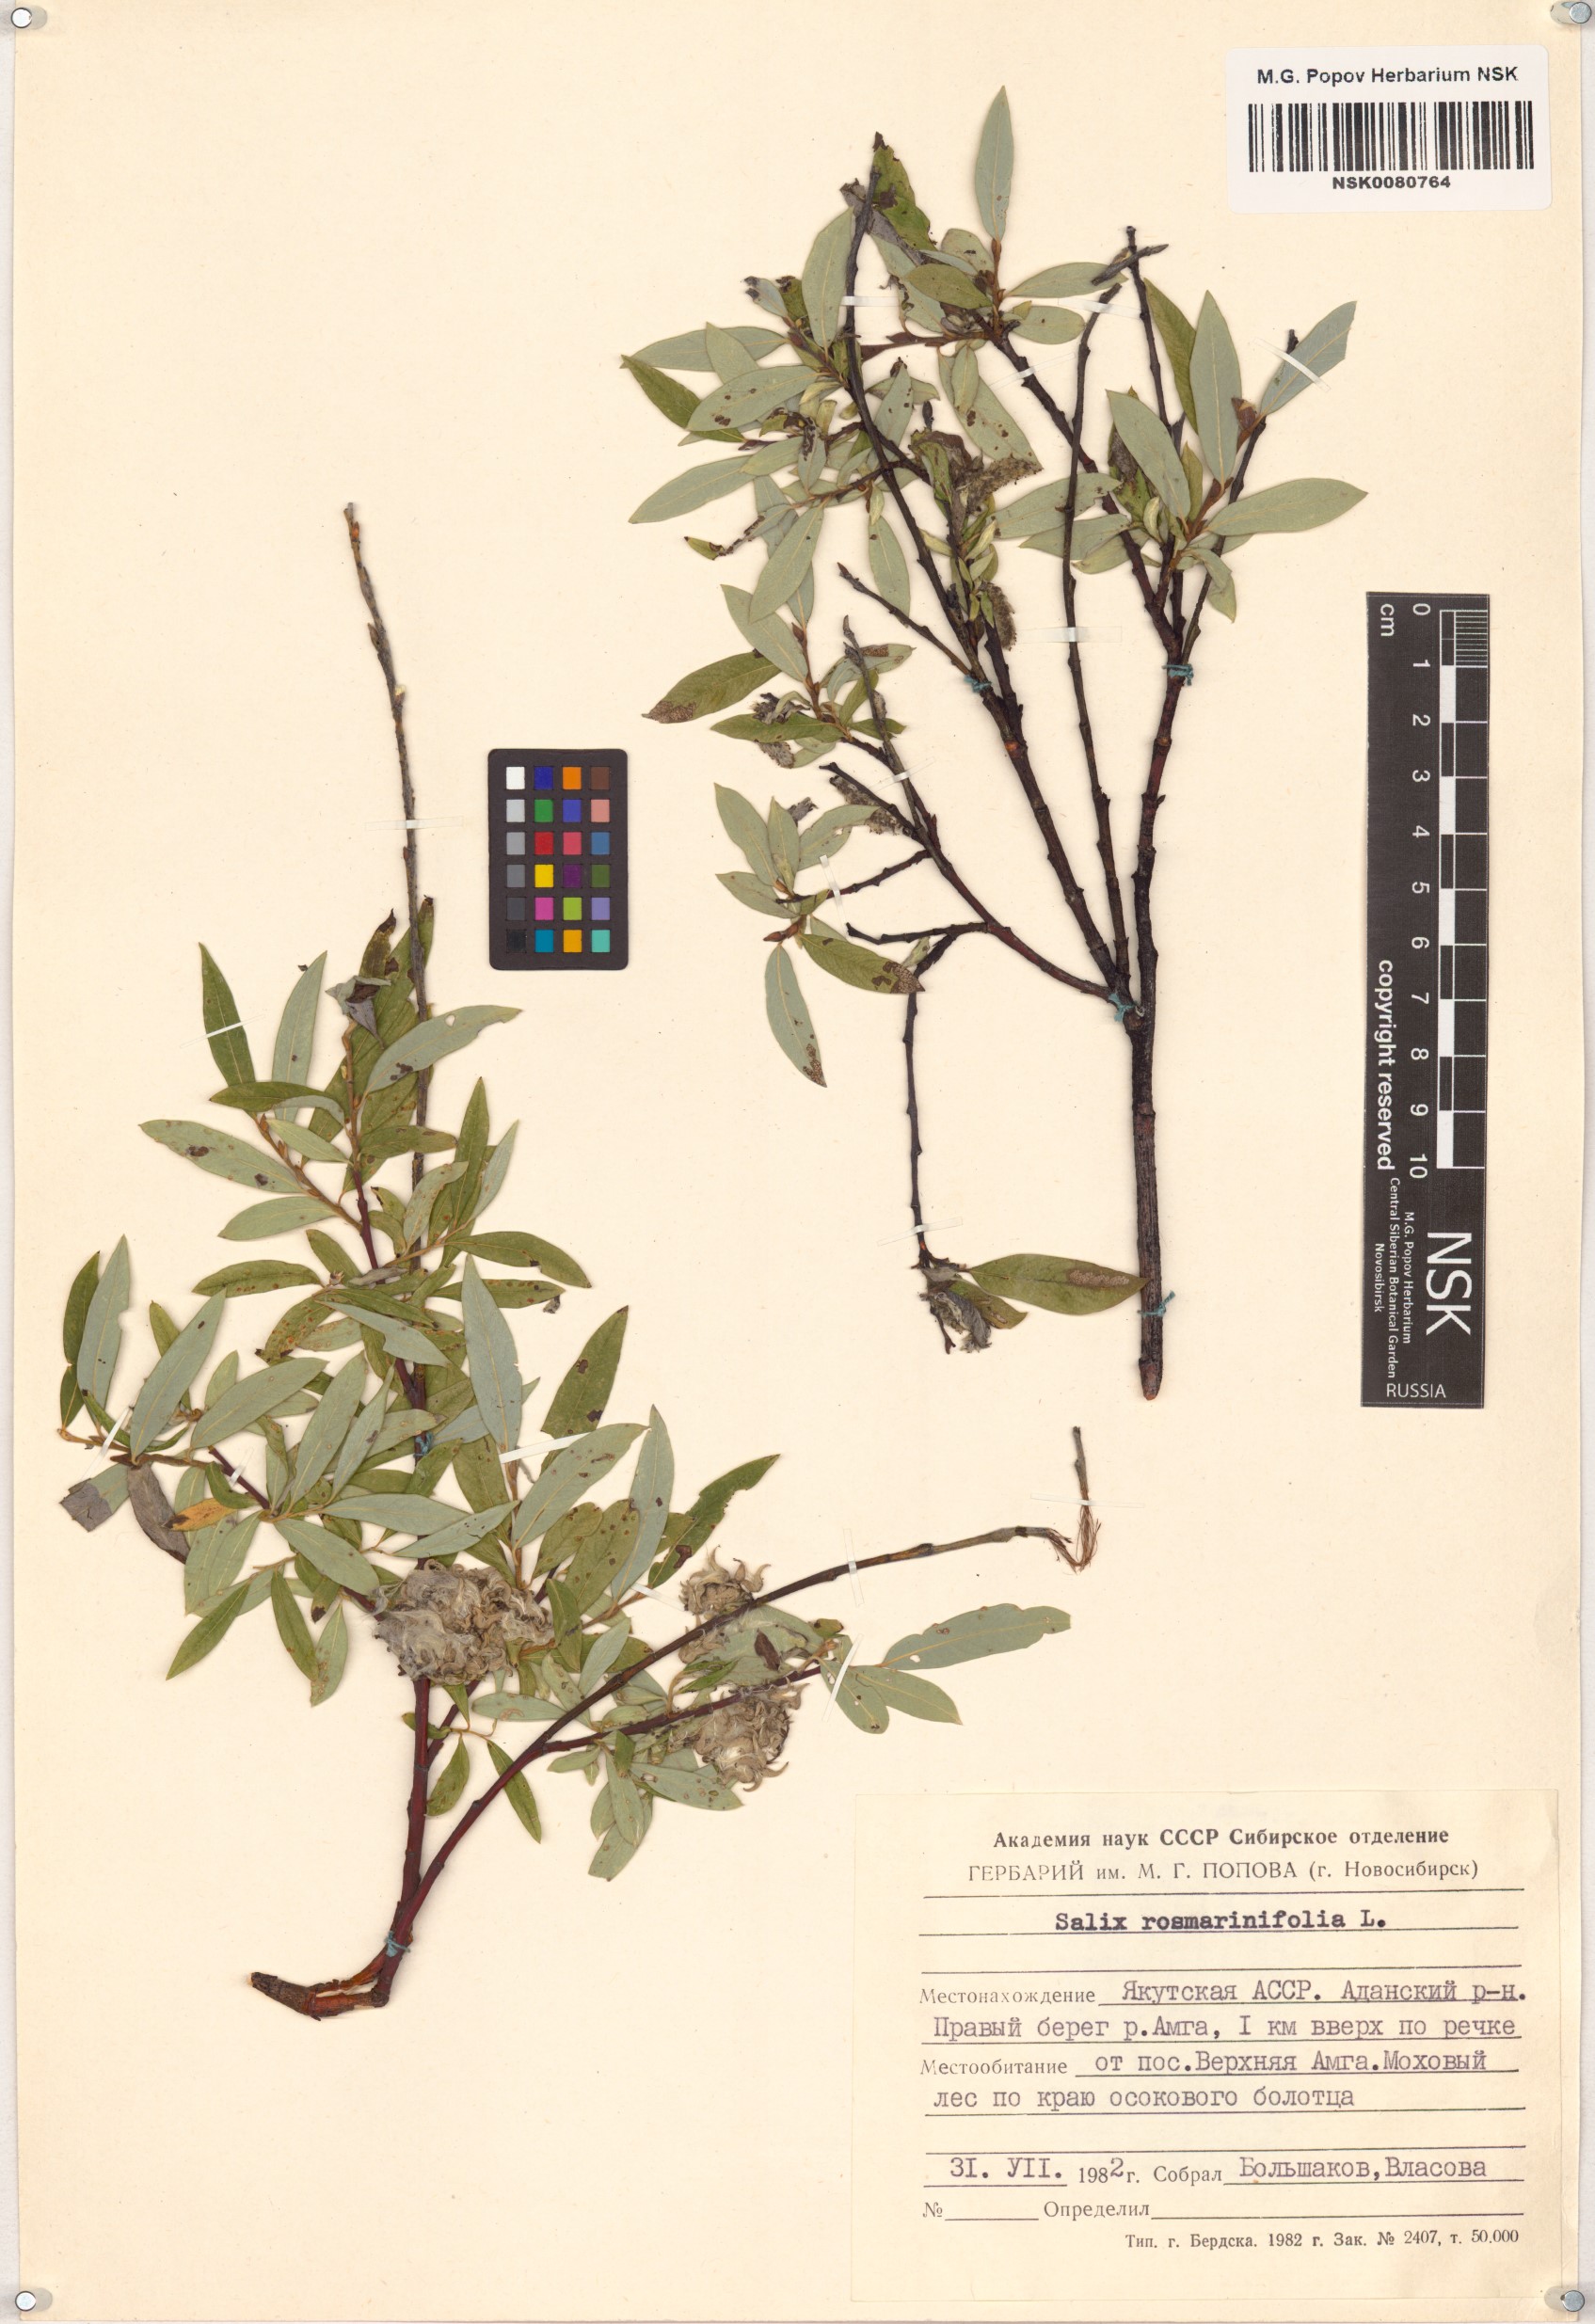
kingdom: Plantae
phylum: Tracheophyta
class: Magnoliopsida
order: Malpighiales
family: Salicaceae
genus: Salix
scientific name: Salix rosmarinifolia
